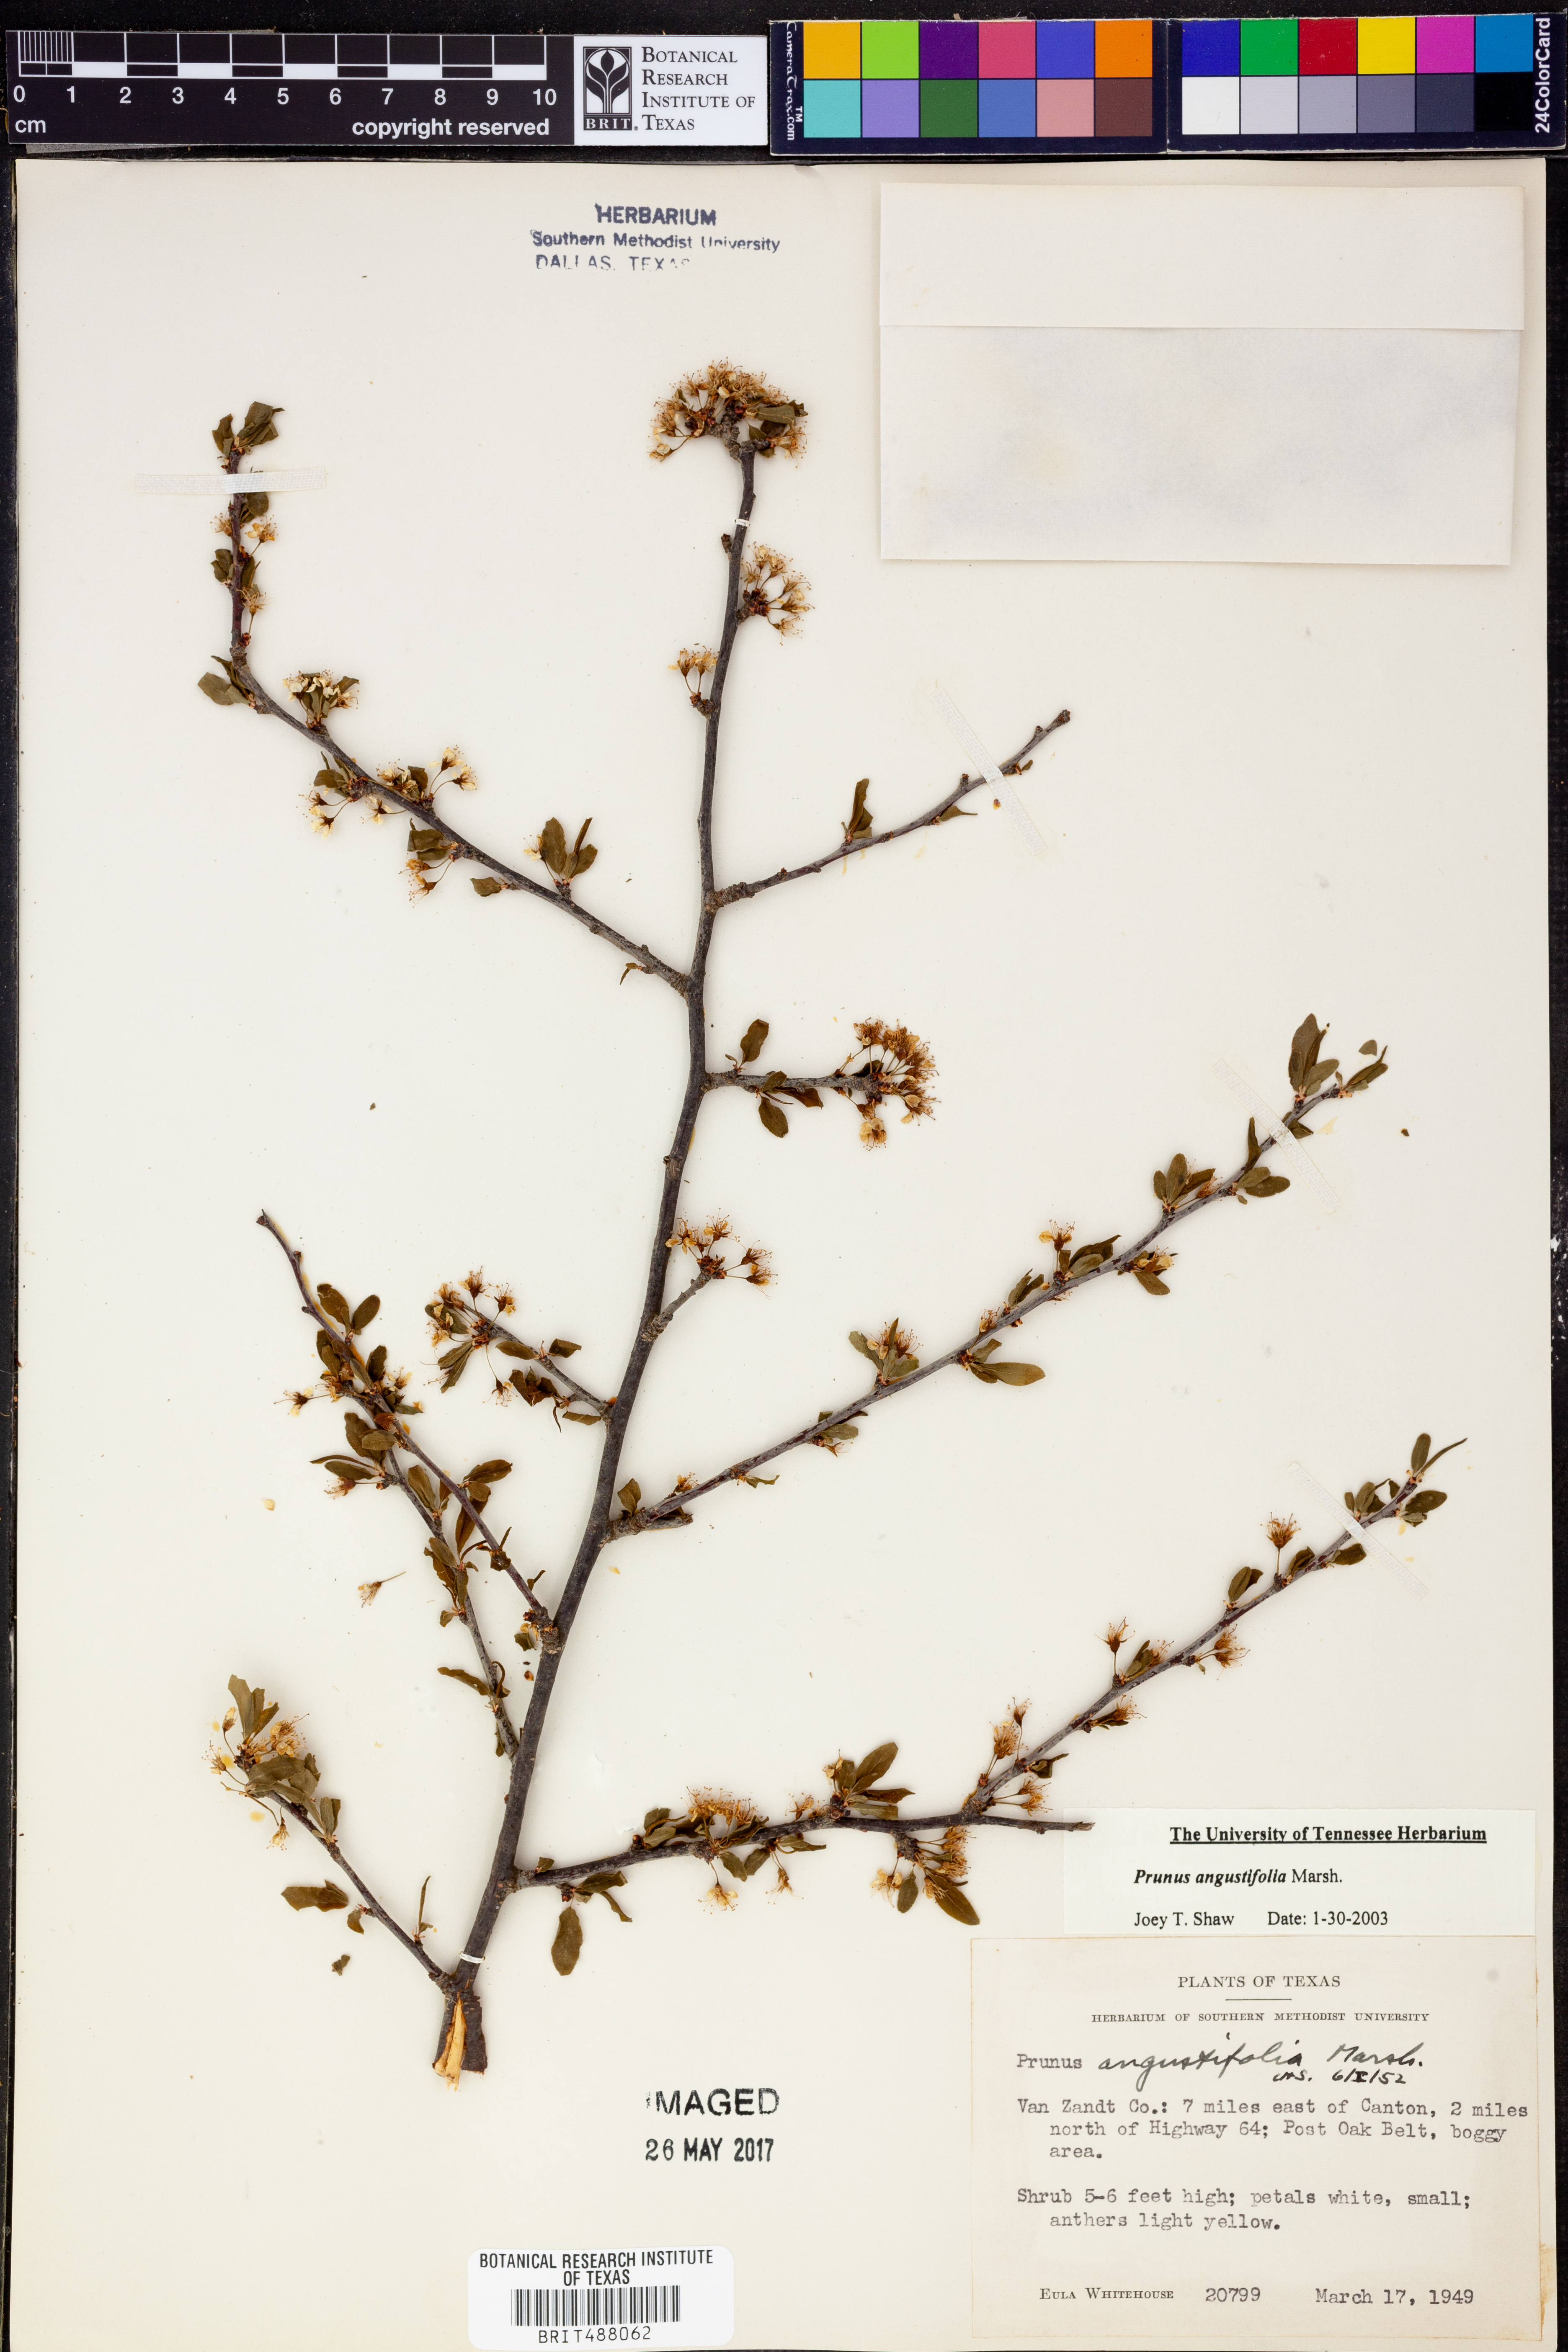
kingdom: Plantae
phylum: Tracheophyta
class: Magnoliopsida
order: Rosales
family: Rosaceae
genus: Prunus
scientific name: Prunus angustifolia
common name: Cherokee plum
